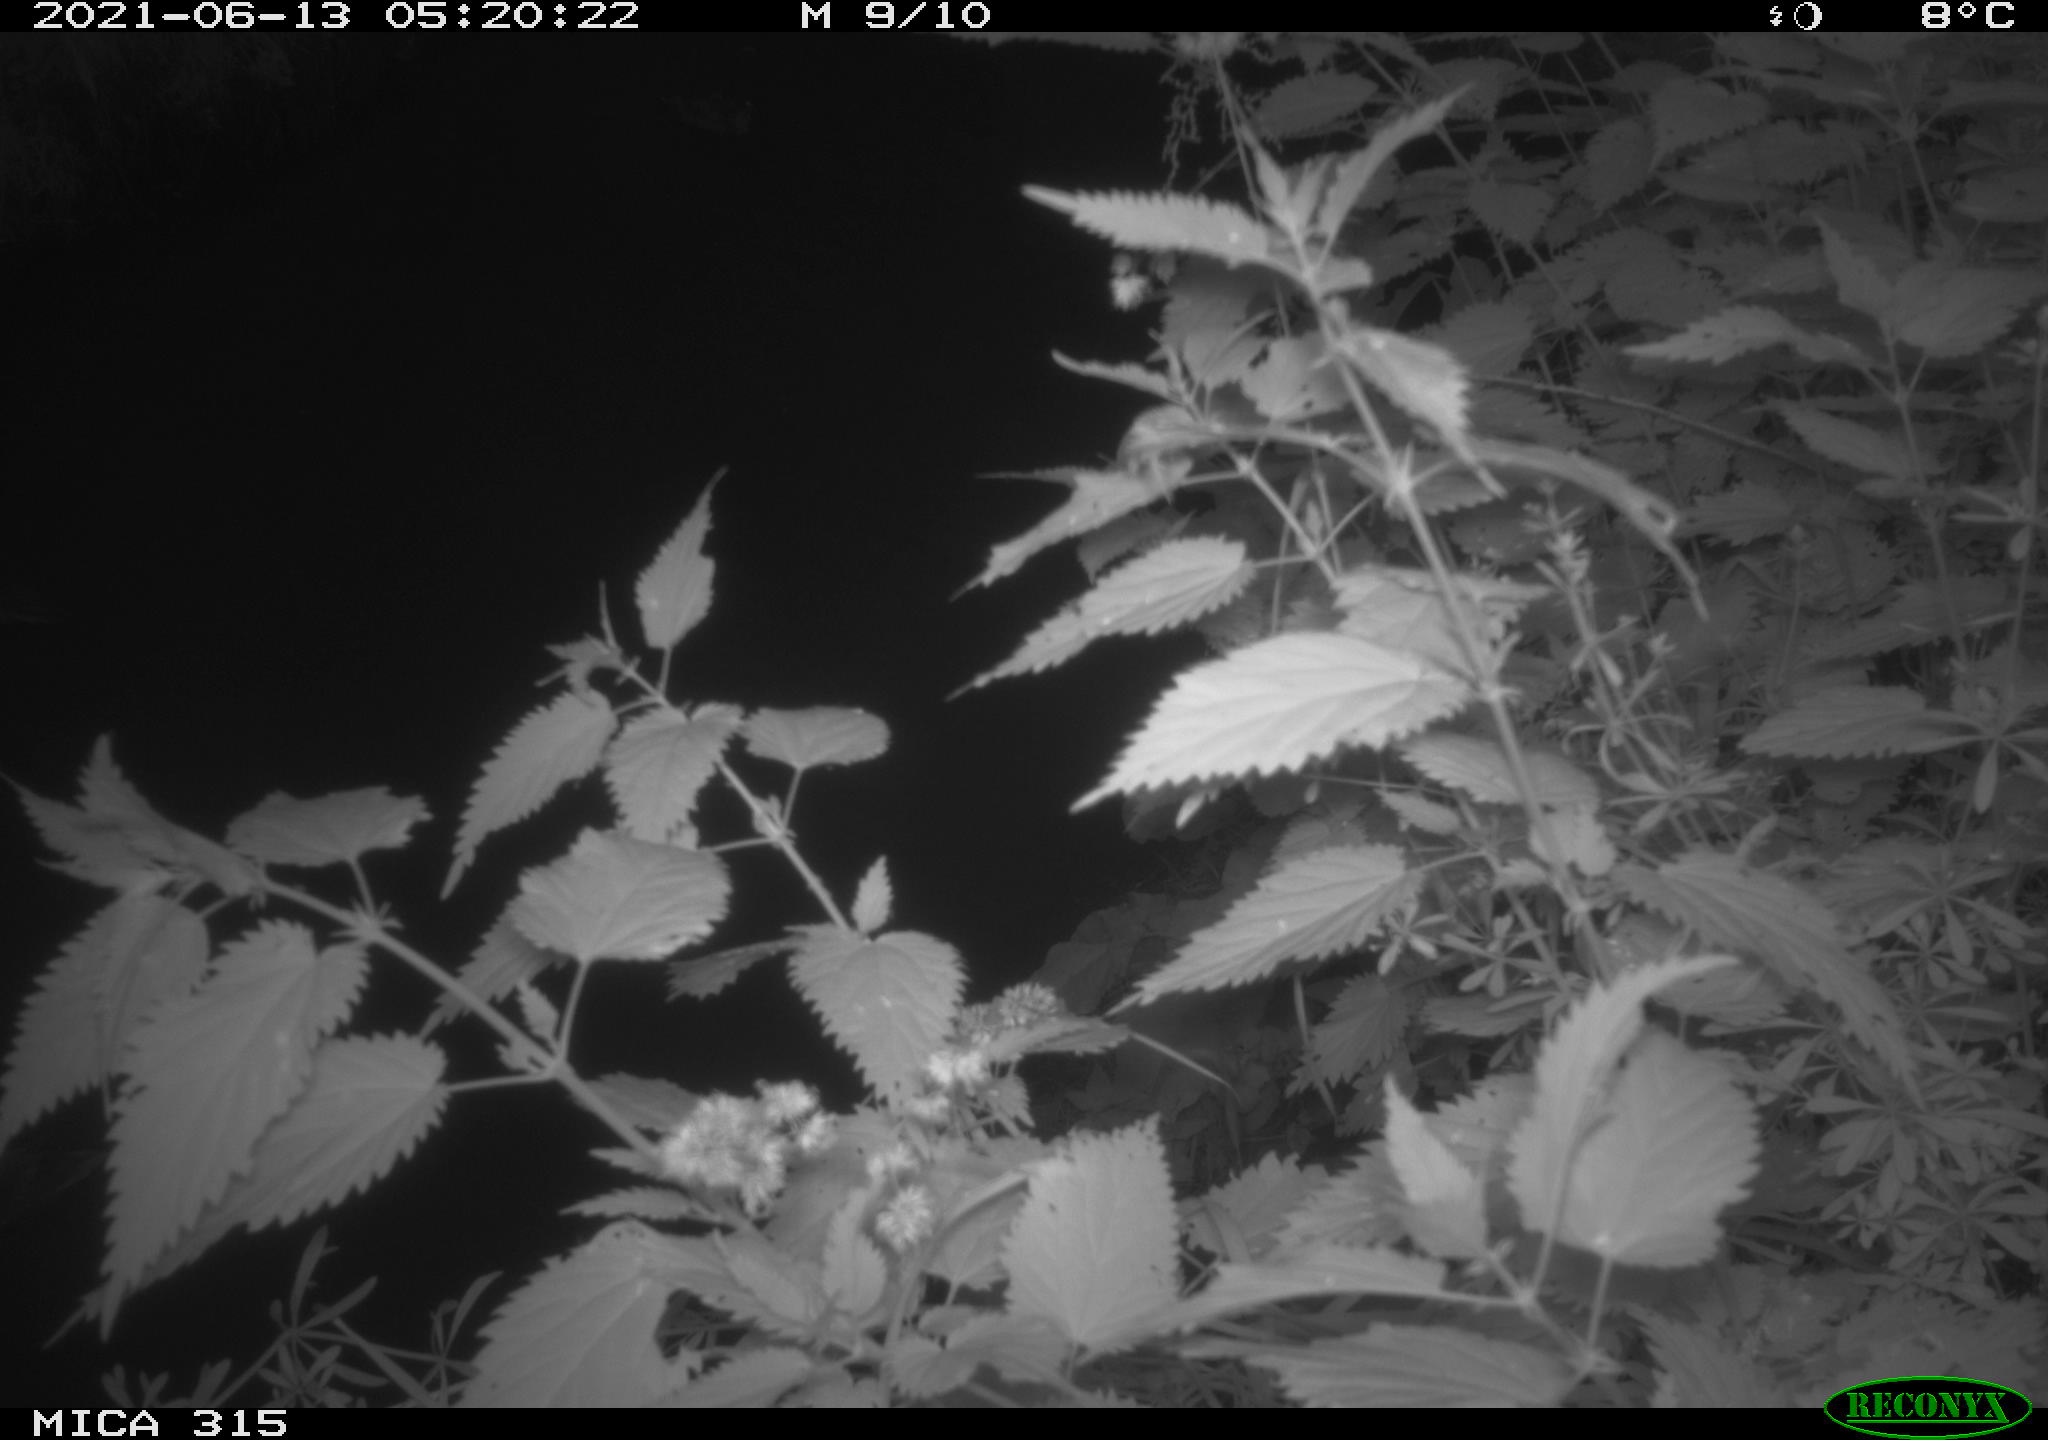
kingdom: Animalia
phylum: Chordata
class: Aves
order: Anseriformes
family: Anatidae
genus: Anas
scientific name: Anas platyrhynchos
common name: Mallard
